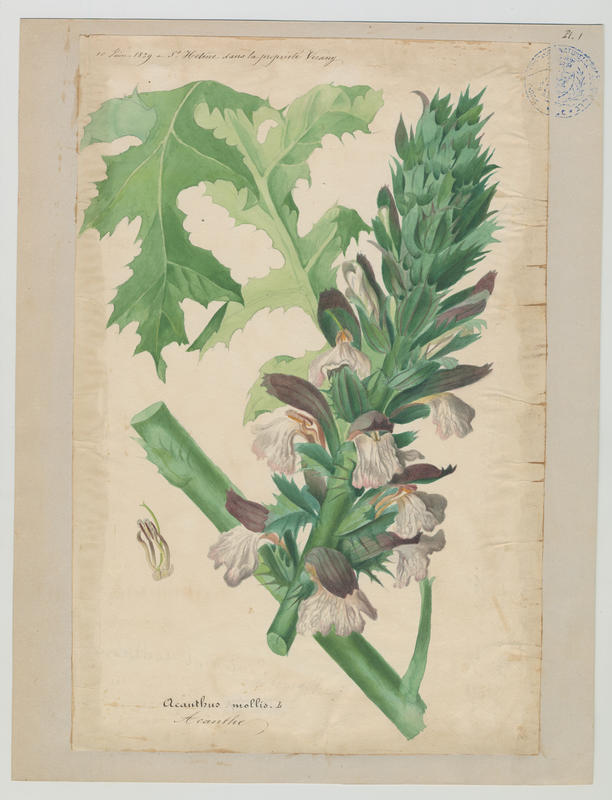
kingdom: Plantae
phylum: Tracheophyta
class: Magnoliopsida
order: Lamiales
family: Acanthaceae
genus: Acanthus
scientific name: Acanthus mollis
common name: Bear's-breech
